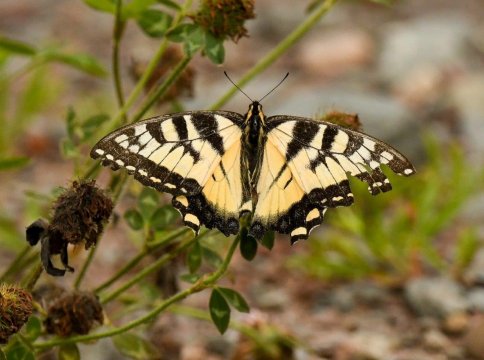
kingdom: Animalia
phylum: Arthropoda
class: Insecta
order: Lepidoptera
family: Papilionidae
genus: Pterourus
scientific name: Pterourus canadensis
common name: Canadian Tiger Swallowtail
